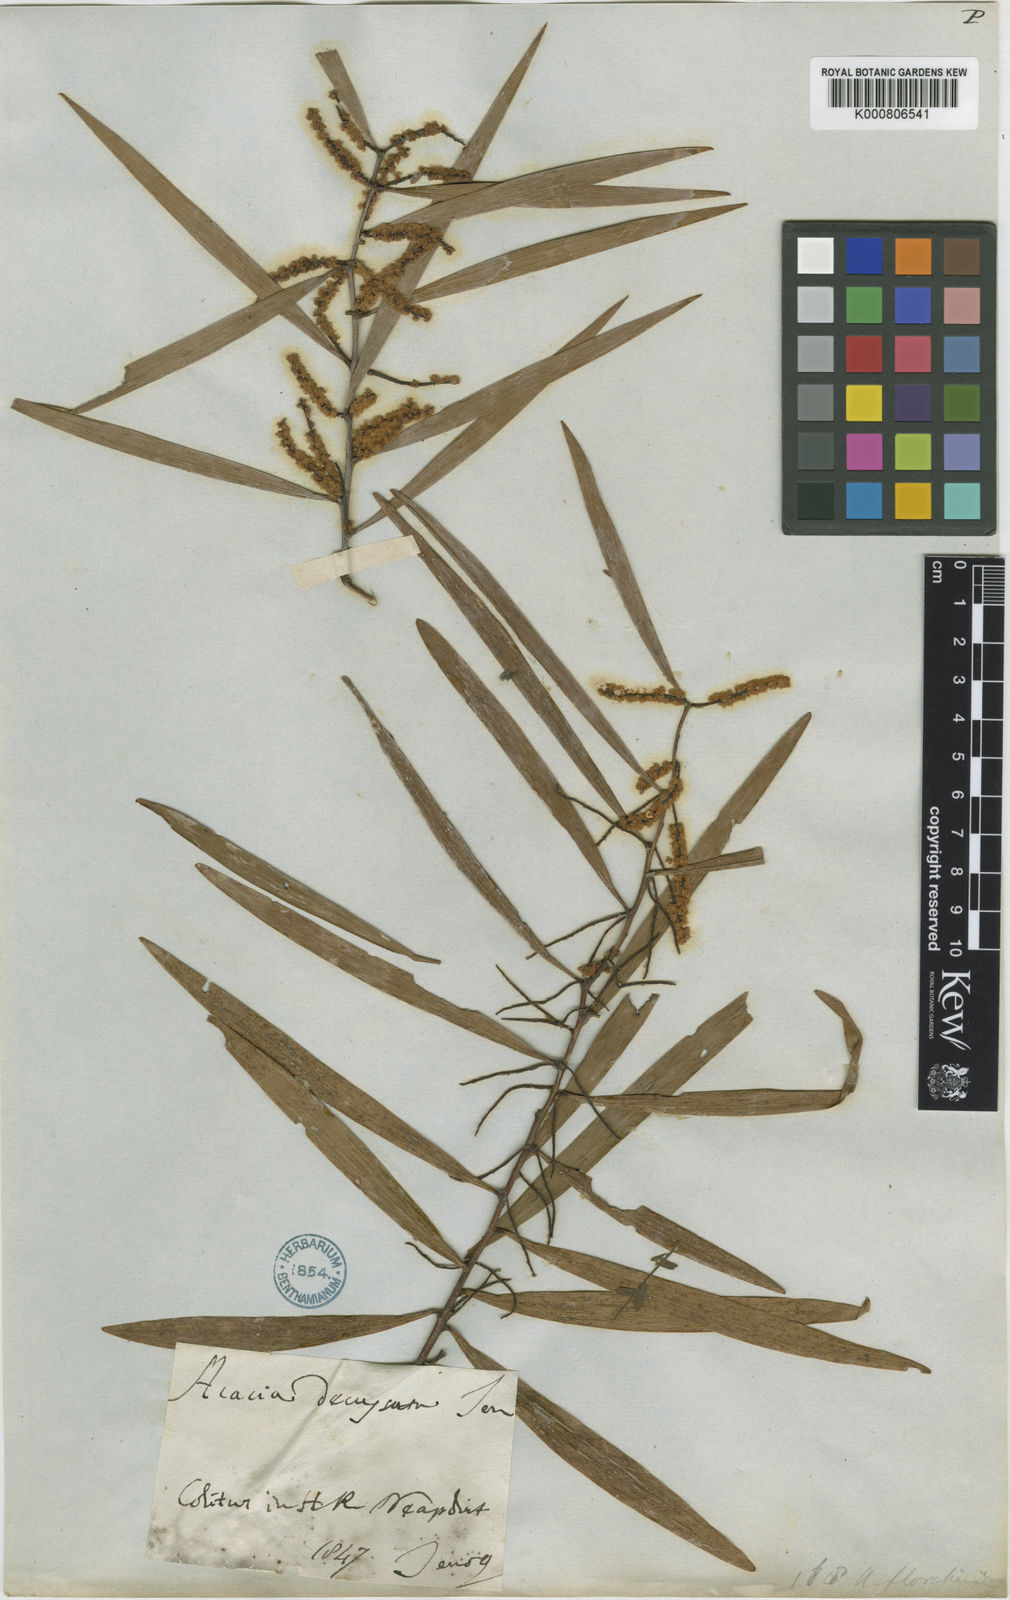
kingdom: Plantae
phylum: Tracheophyta
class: Magnoliopsida
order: Fabales
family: Fabaceae
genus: Acacia
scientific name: Acacia longifolia
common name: Sydney golden wattle
